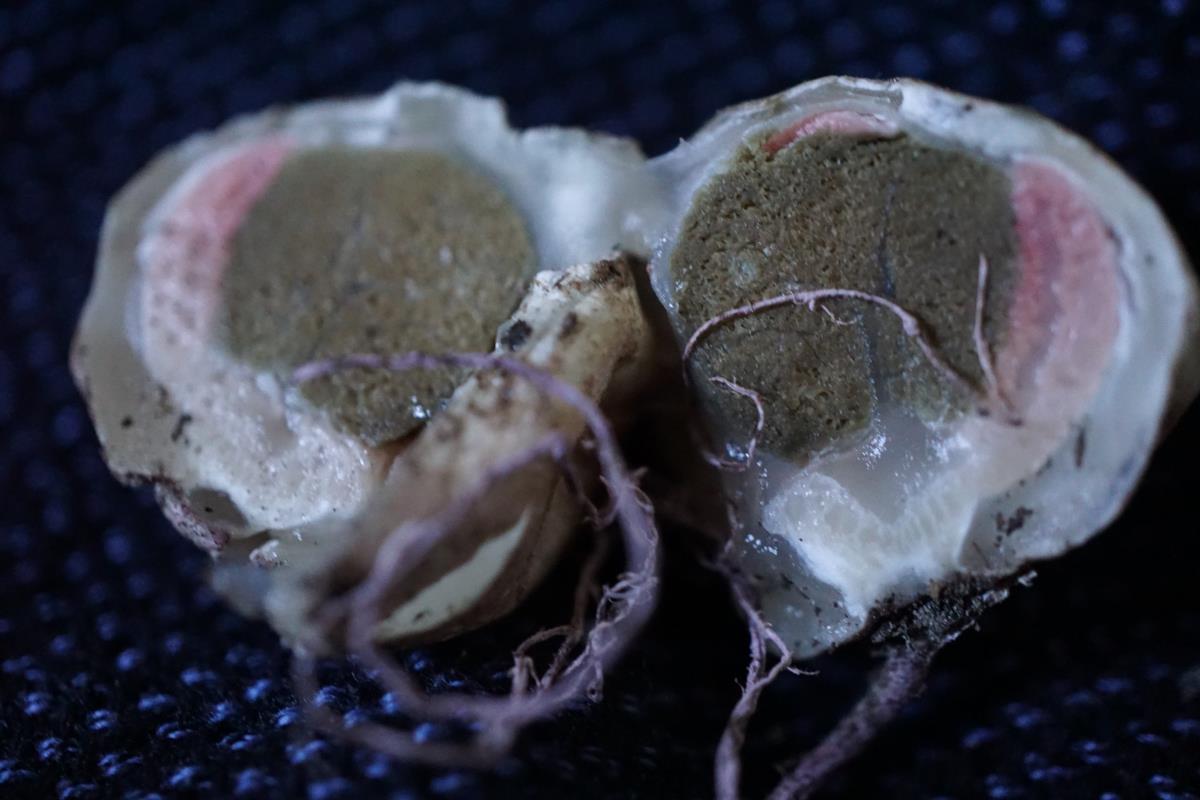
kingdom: Fungi
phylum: Basidiomycota
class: Agaricomycetes
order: Phallales
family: Phallaceae
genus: Clathrus
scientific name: Clathrus archeri
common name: Devil's fingers
